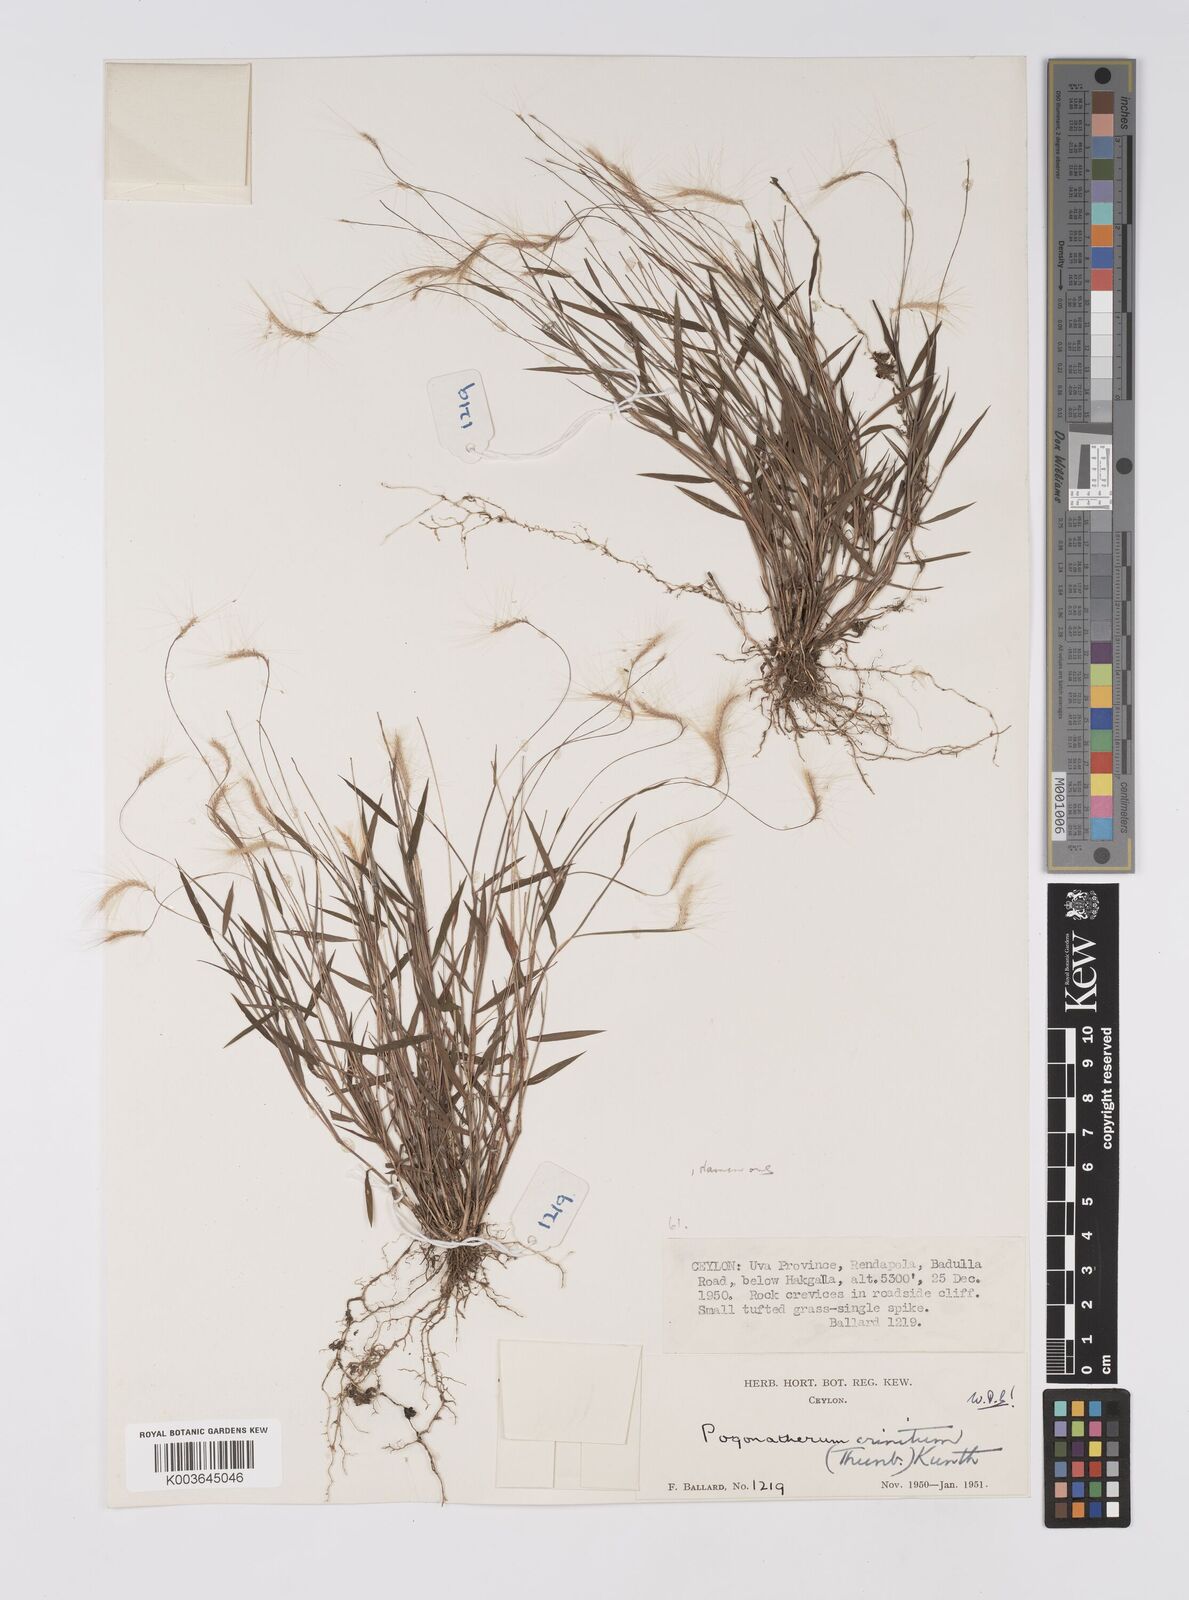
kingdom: Plantae
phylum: Tracheophyta
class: Liliopsida
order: Poales
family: Poaceae
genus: Pogonatherum
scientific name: Pogonatherum crinitum
